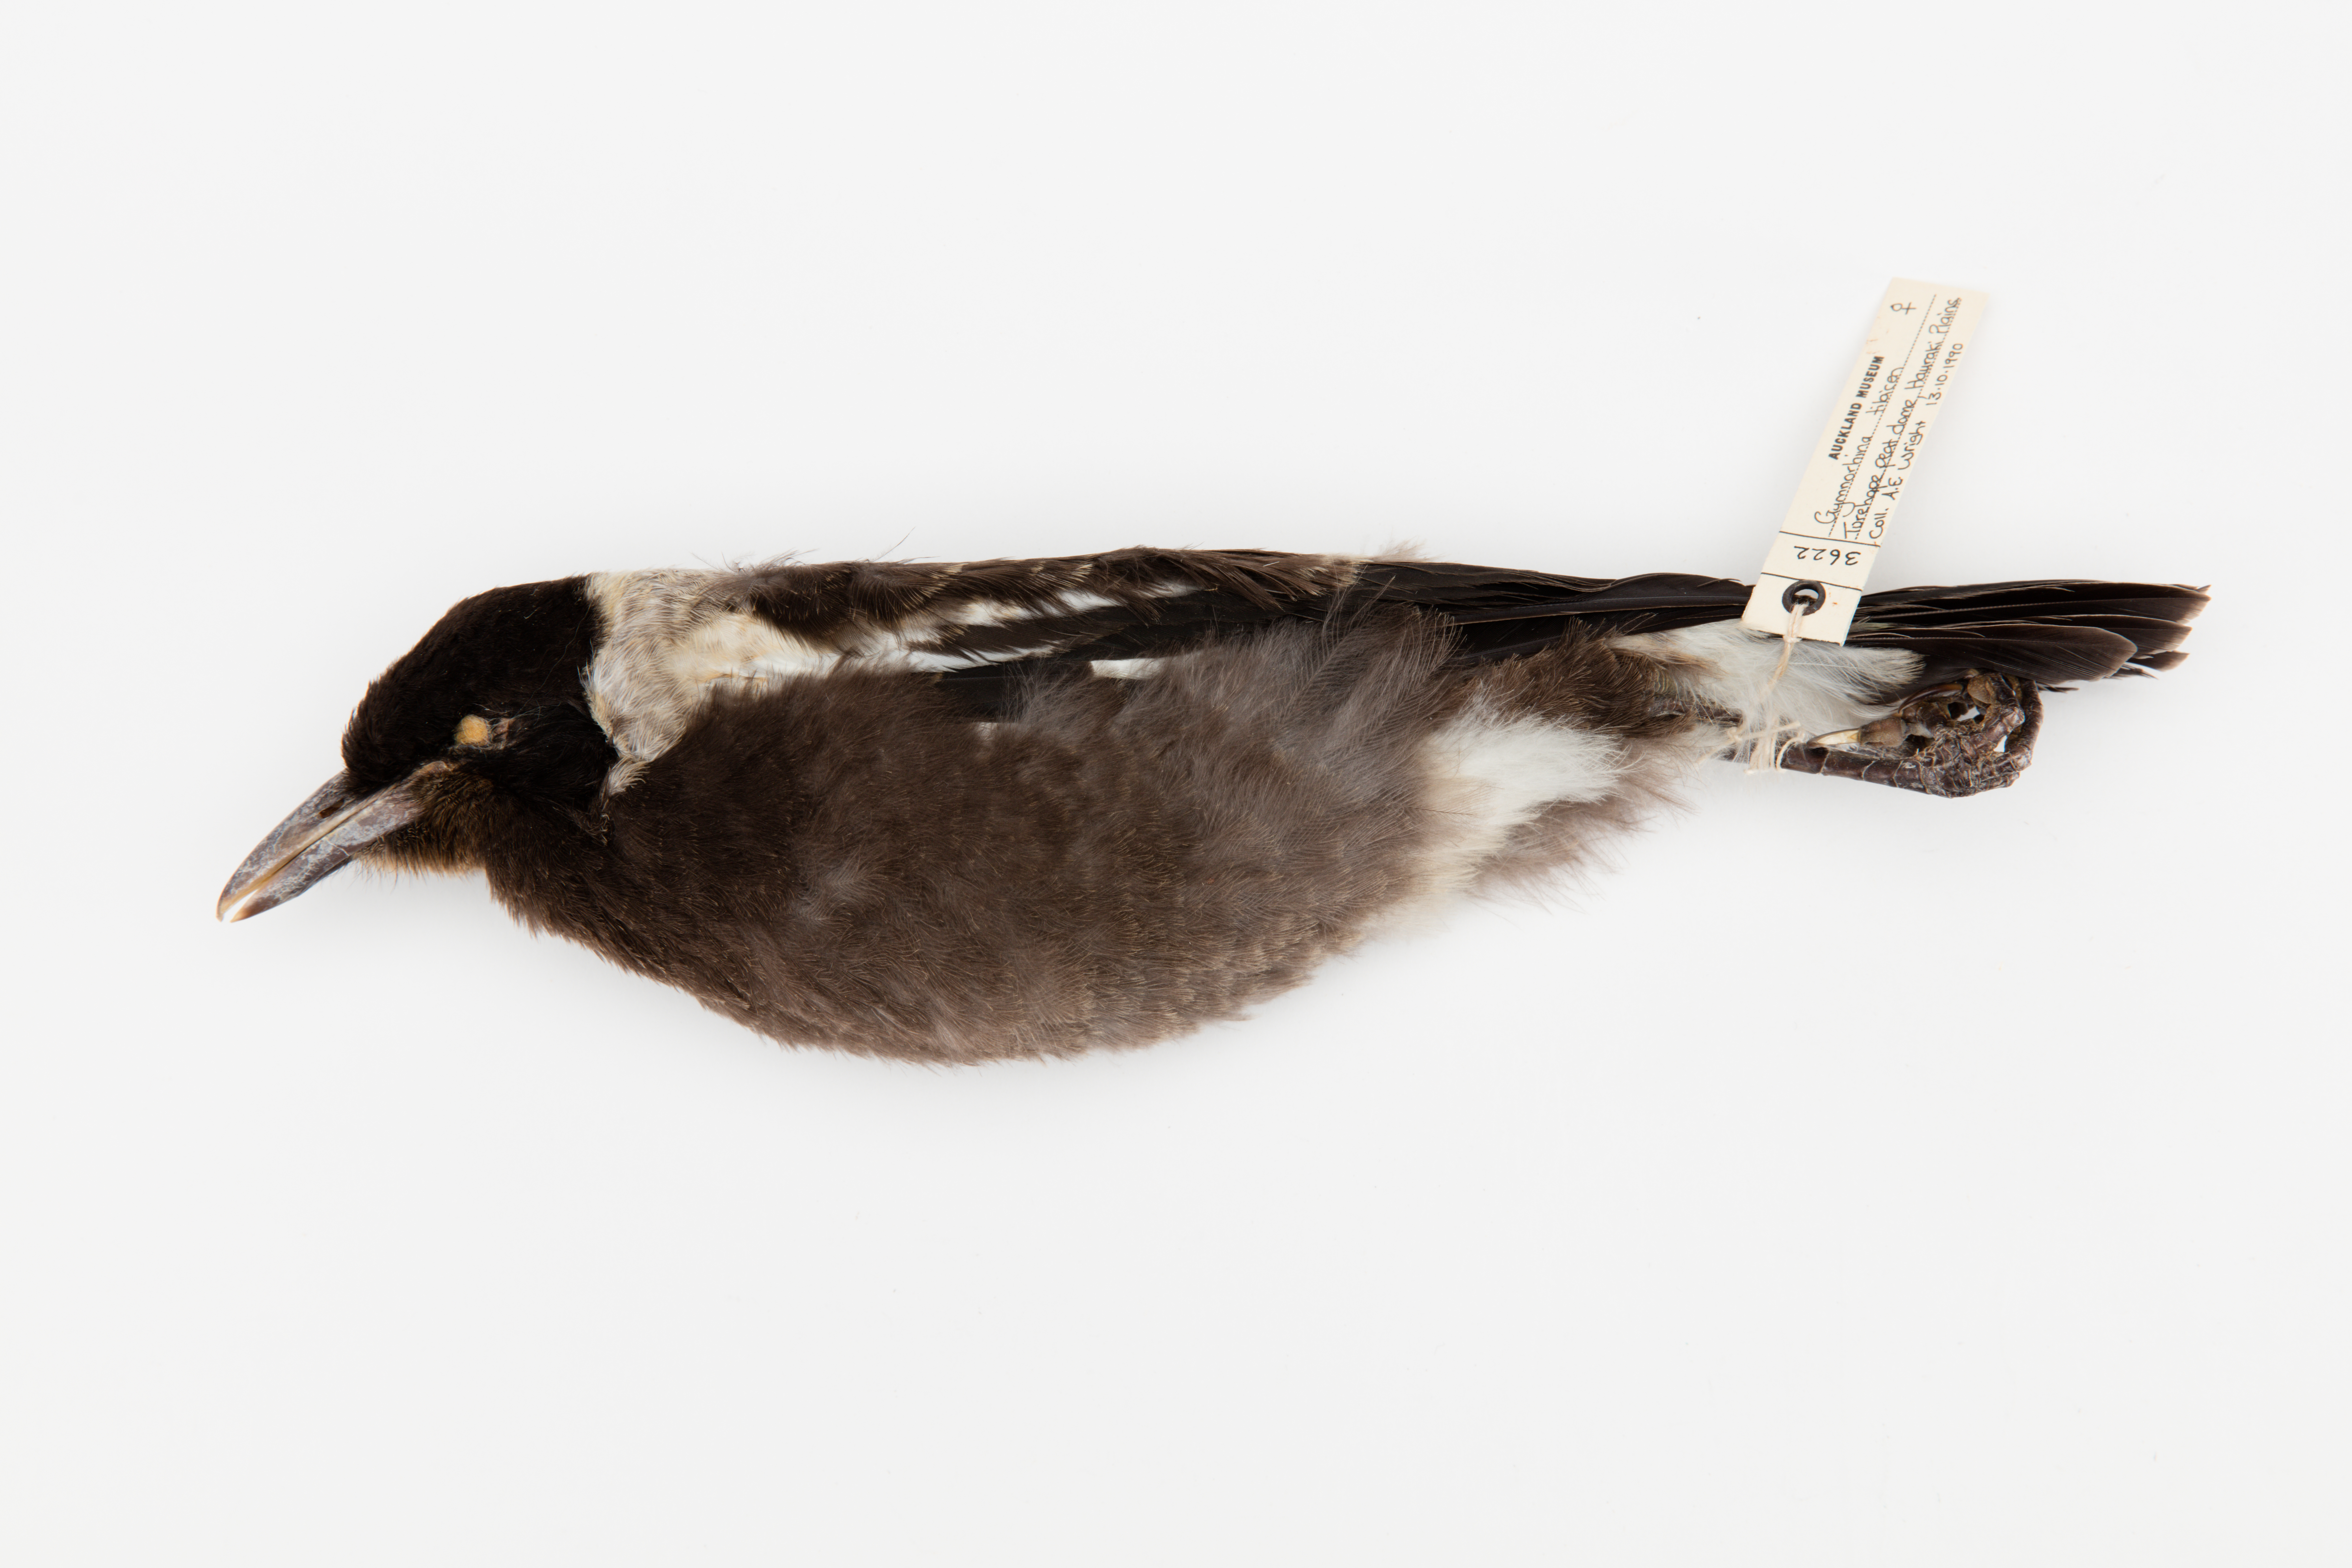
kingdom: Animalia
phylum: Chordata
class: Aves
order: Passeriformes
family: Cracticidae
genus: Gymnorhina
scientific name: Gymnorhina tibicen
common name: Australian magpie
